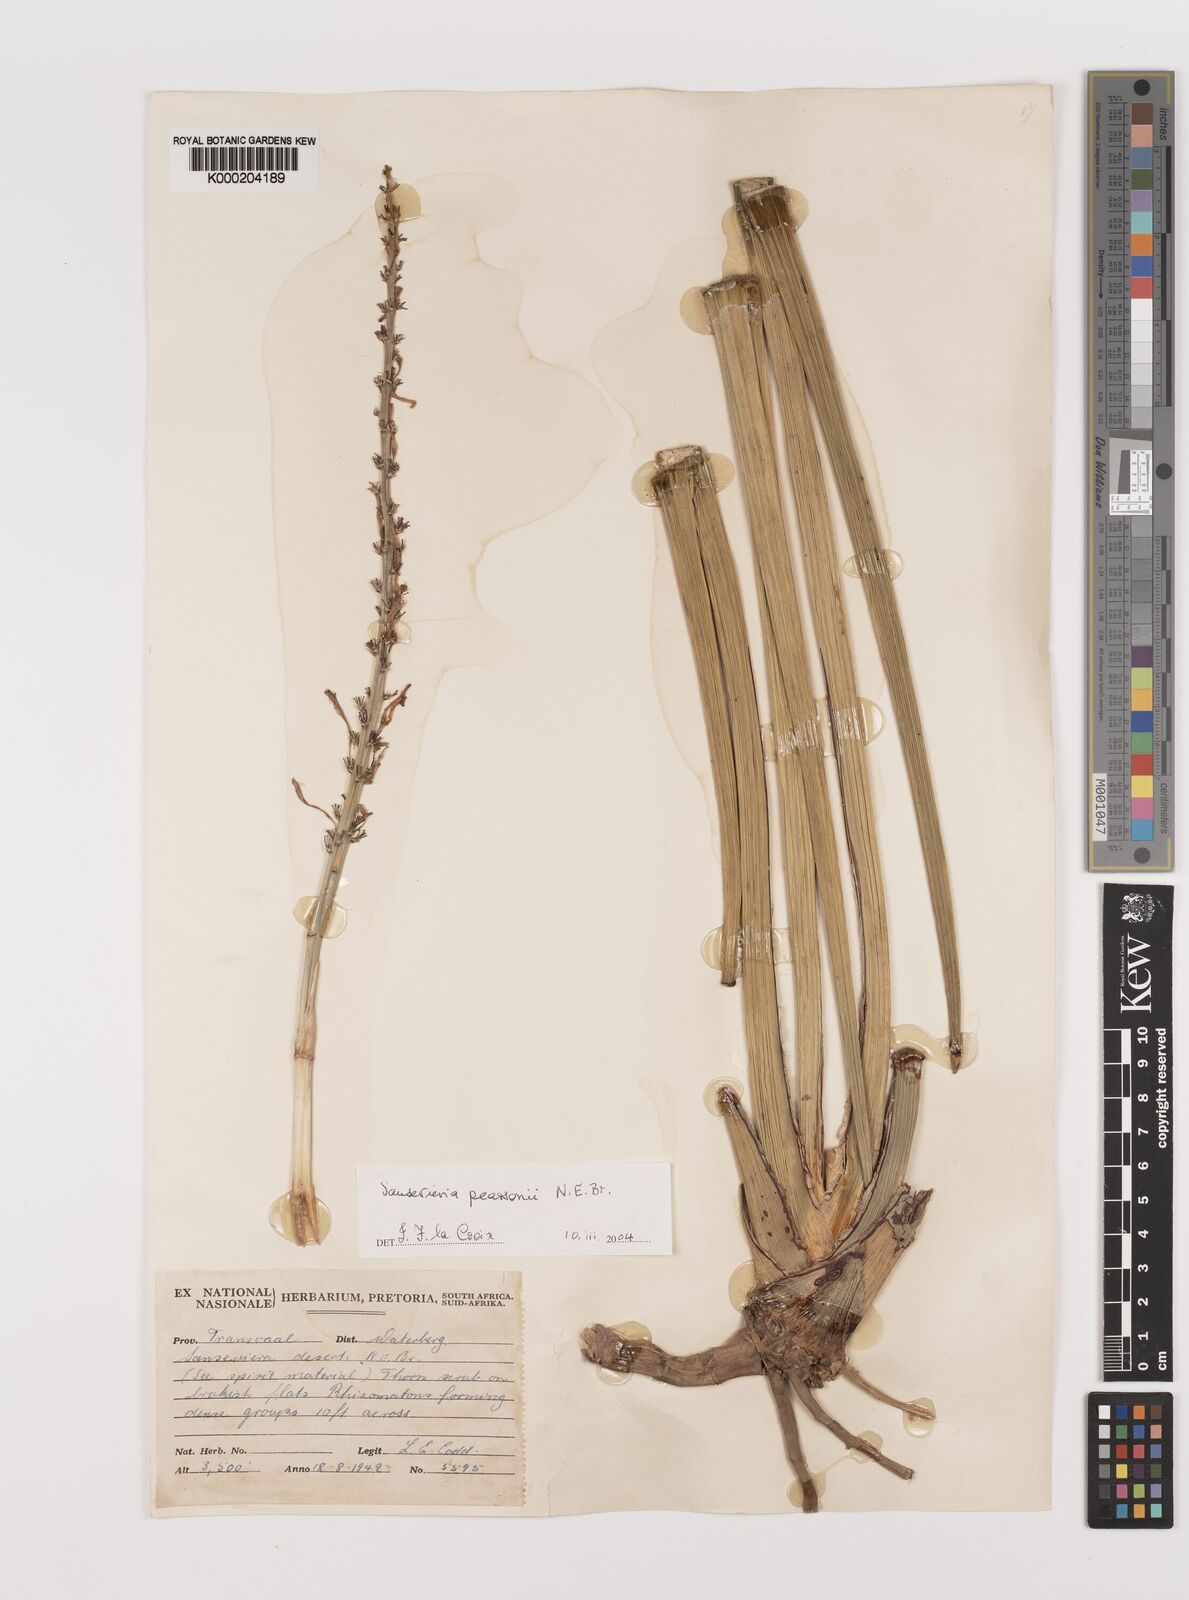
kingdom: Plantae
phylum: Tracheophyta
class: Liliopsida
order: Asparagales
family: Asparagaceae
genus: Dracaena
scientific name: Dracaena pearsonii
